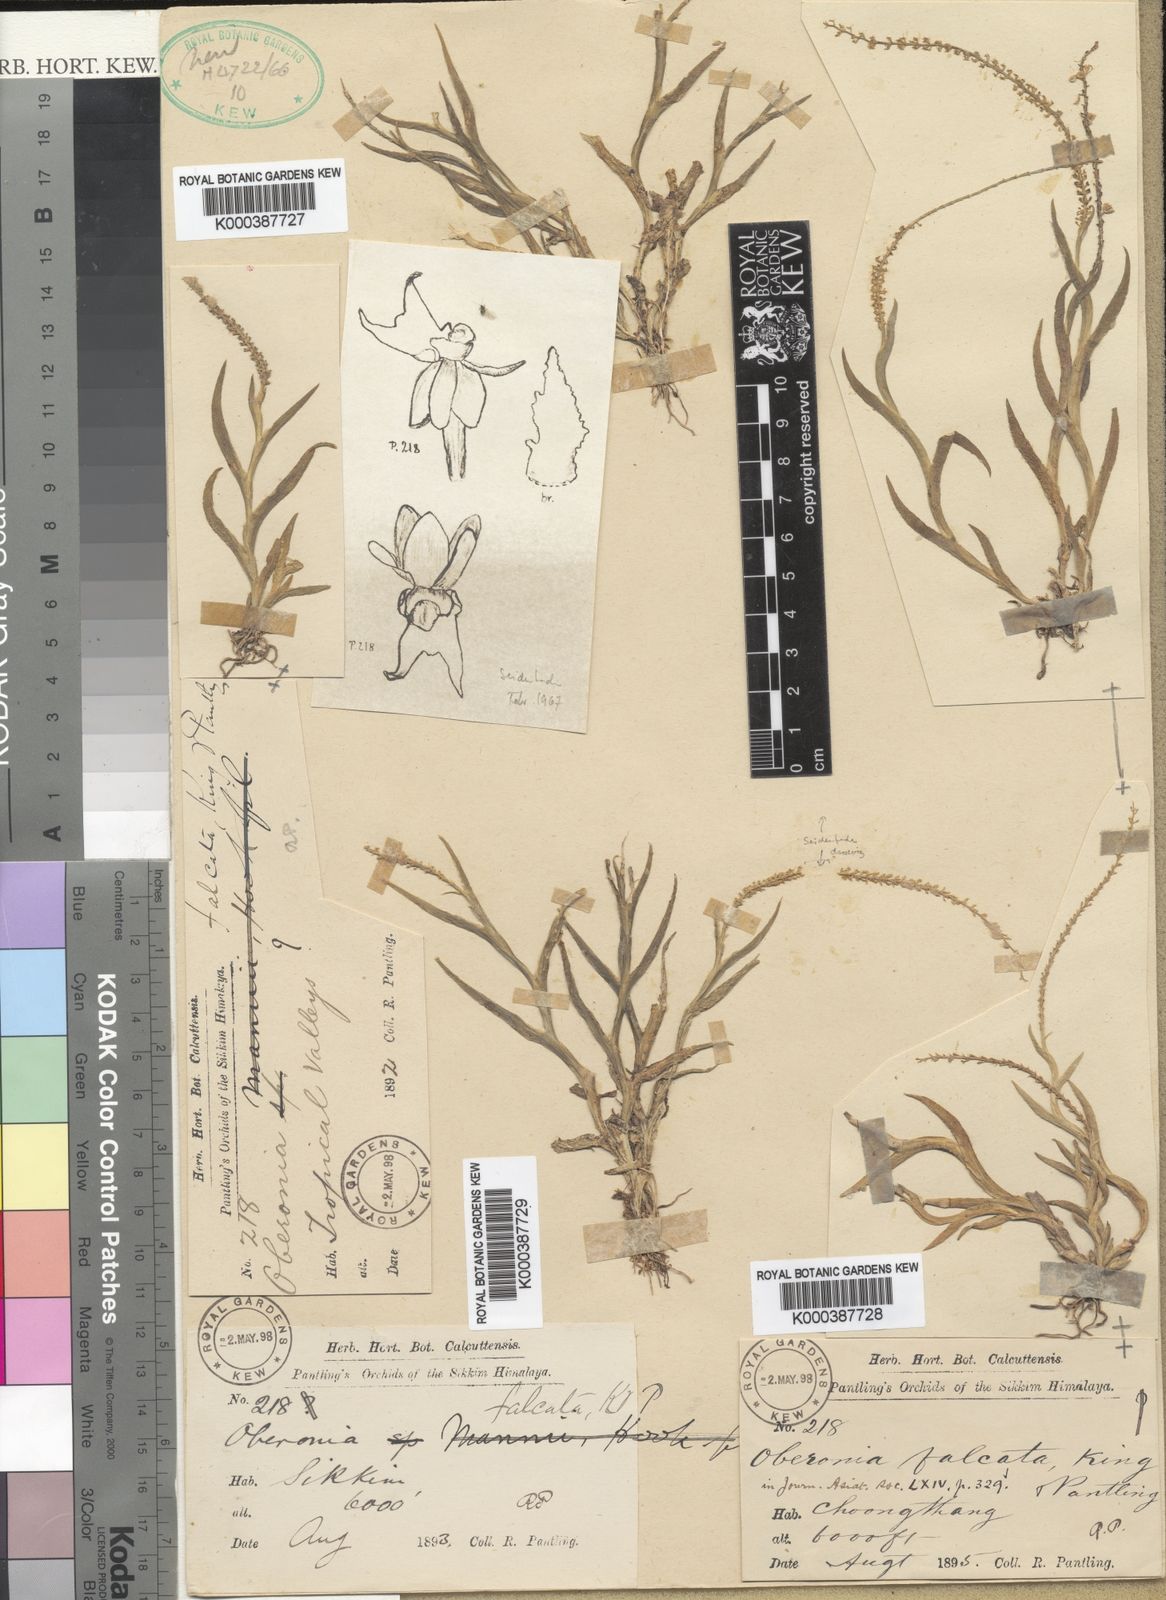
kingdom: Plantae
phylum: Tracheophyta
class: Liliopsida
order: Asparagales
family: Orchidaceae
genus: Oberonia
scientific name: Oberonia anthropophora
